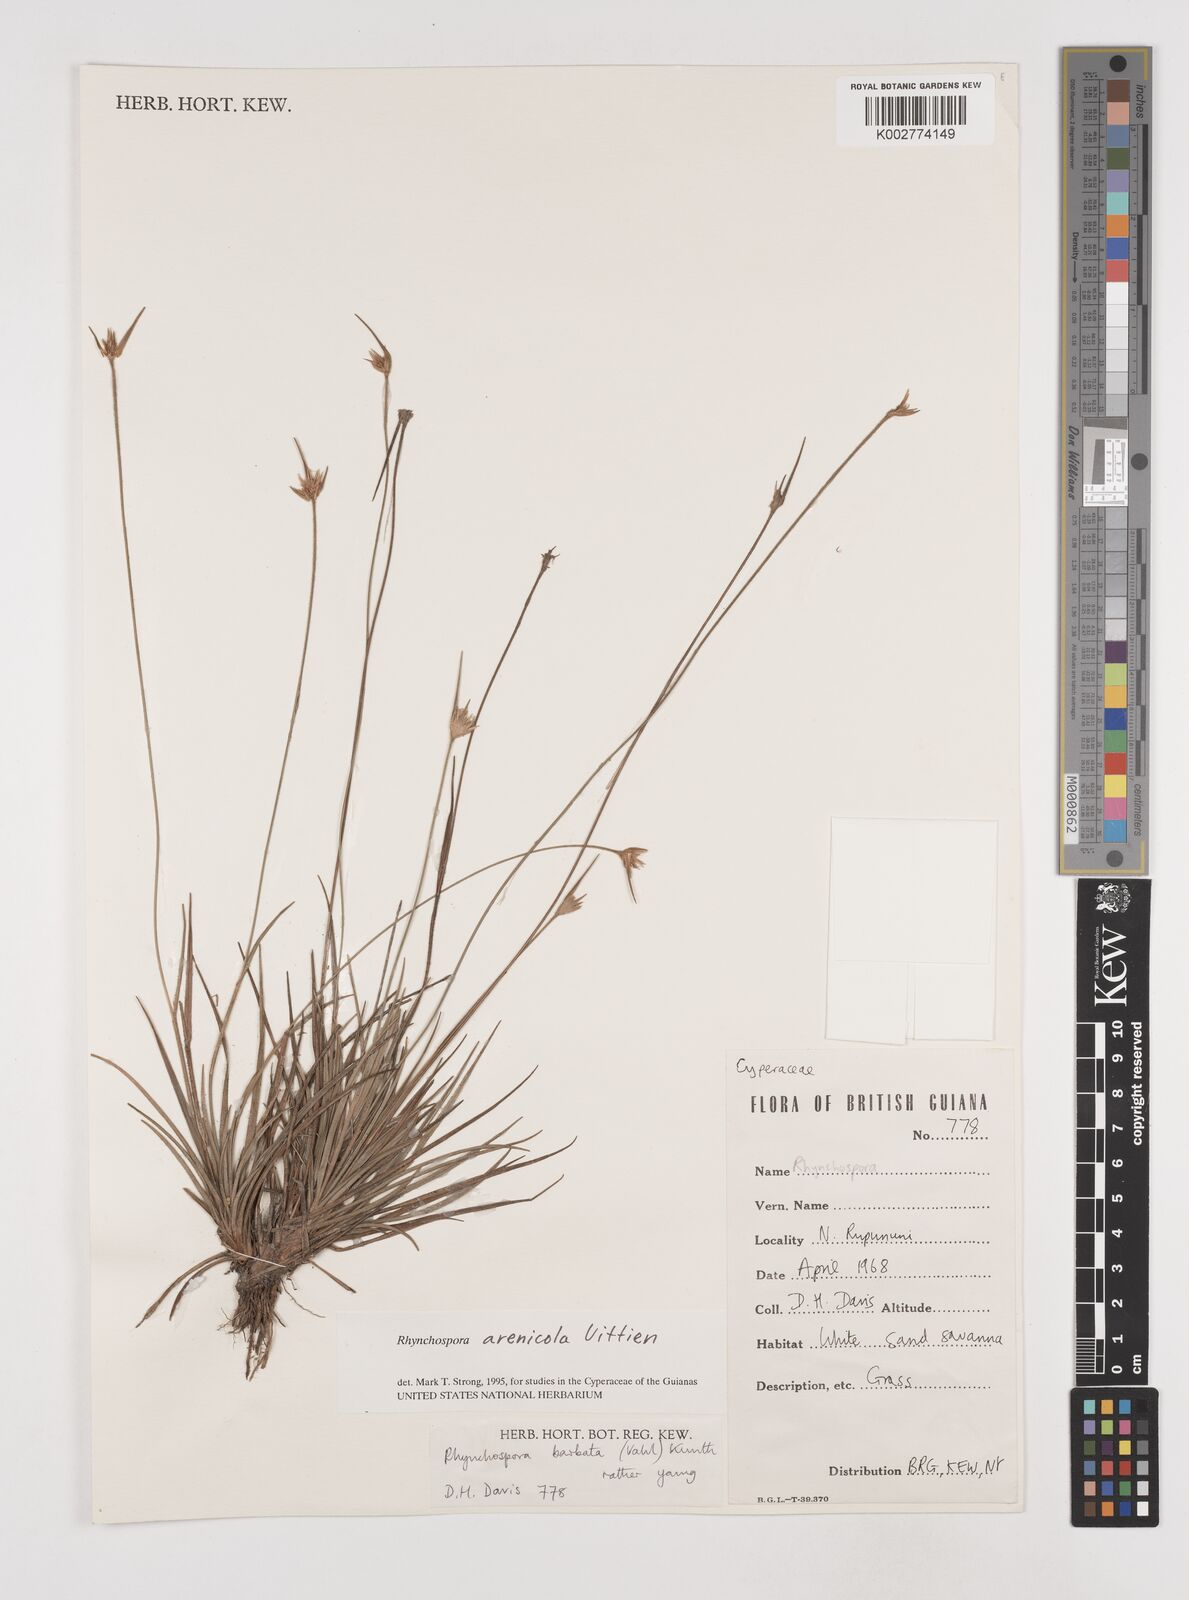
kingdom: Plantae
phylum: Tracheophyta
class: Liliopsida
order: Poales
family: Cyperaceae
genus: Rhynchospora
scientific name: Rhynchospora arenicola
